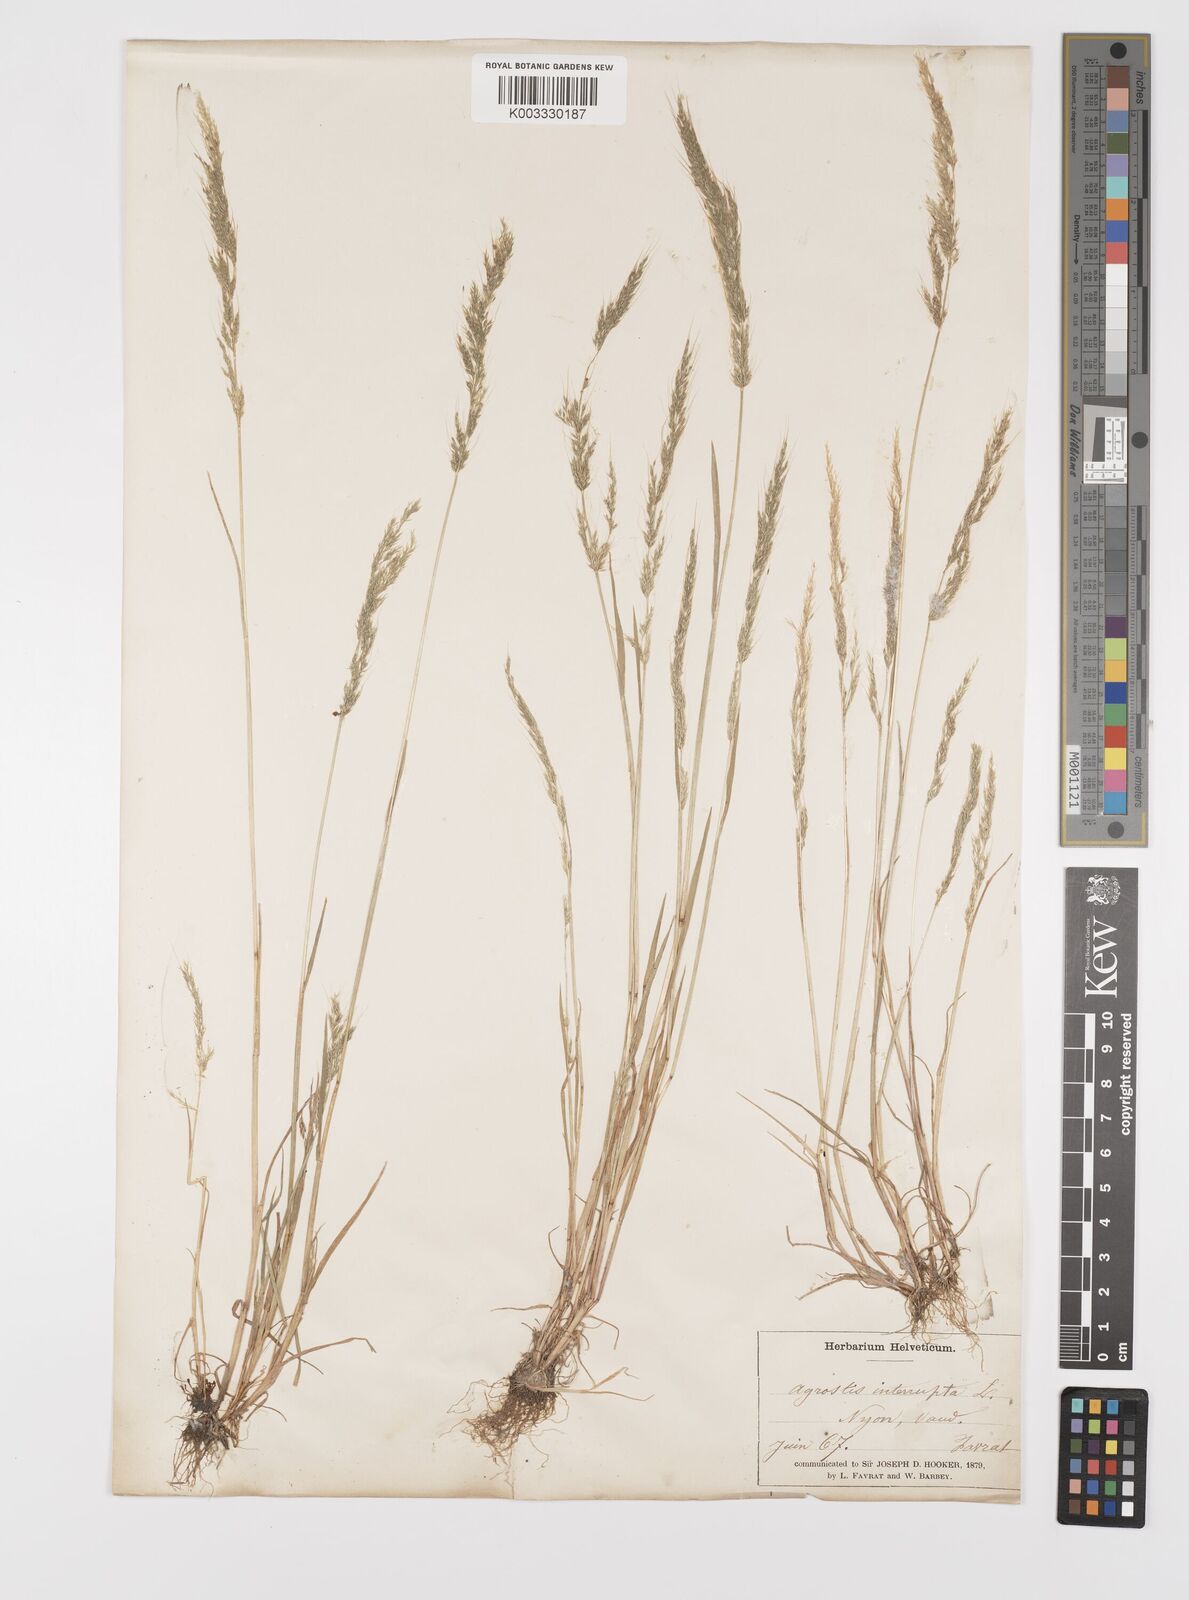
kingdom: Plantae
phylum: Tracheophyta
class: Liliopsida
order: Poales
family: Poaceae
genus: Apera
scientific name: Apera interrupta
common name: Dense silky-bent
